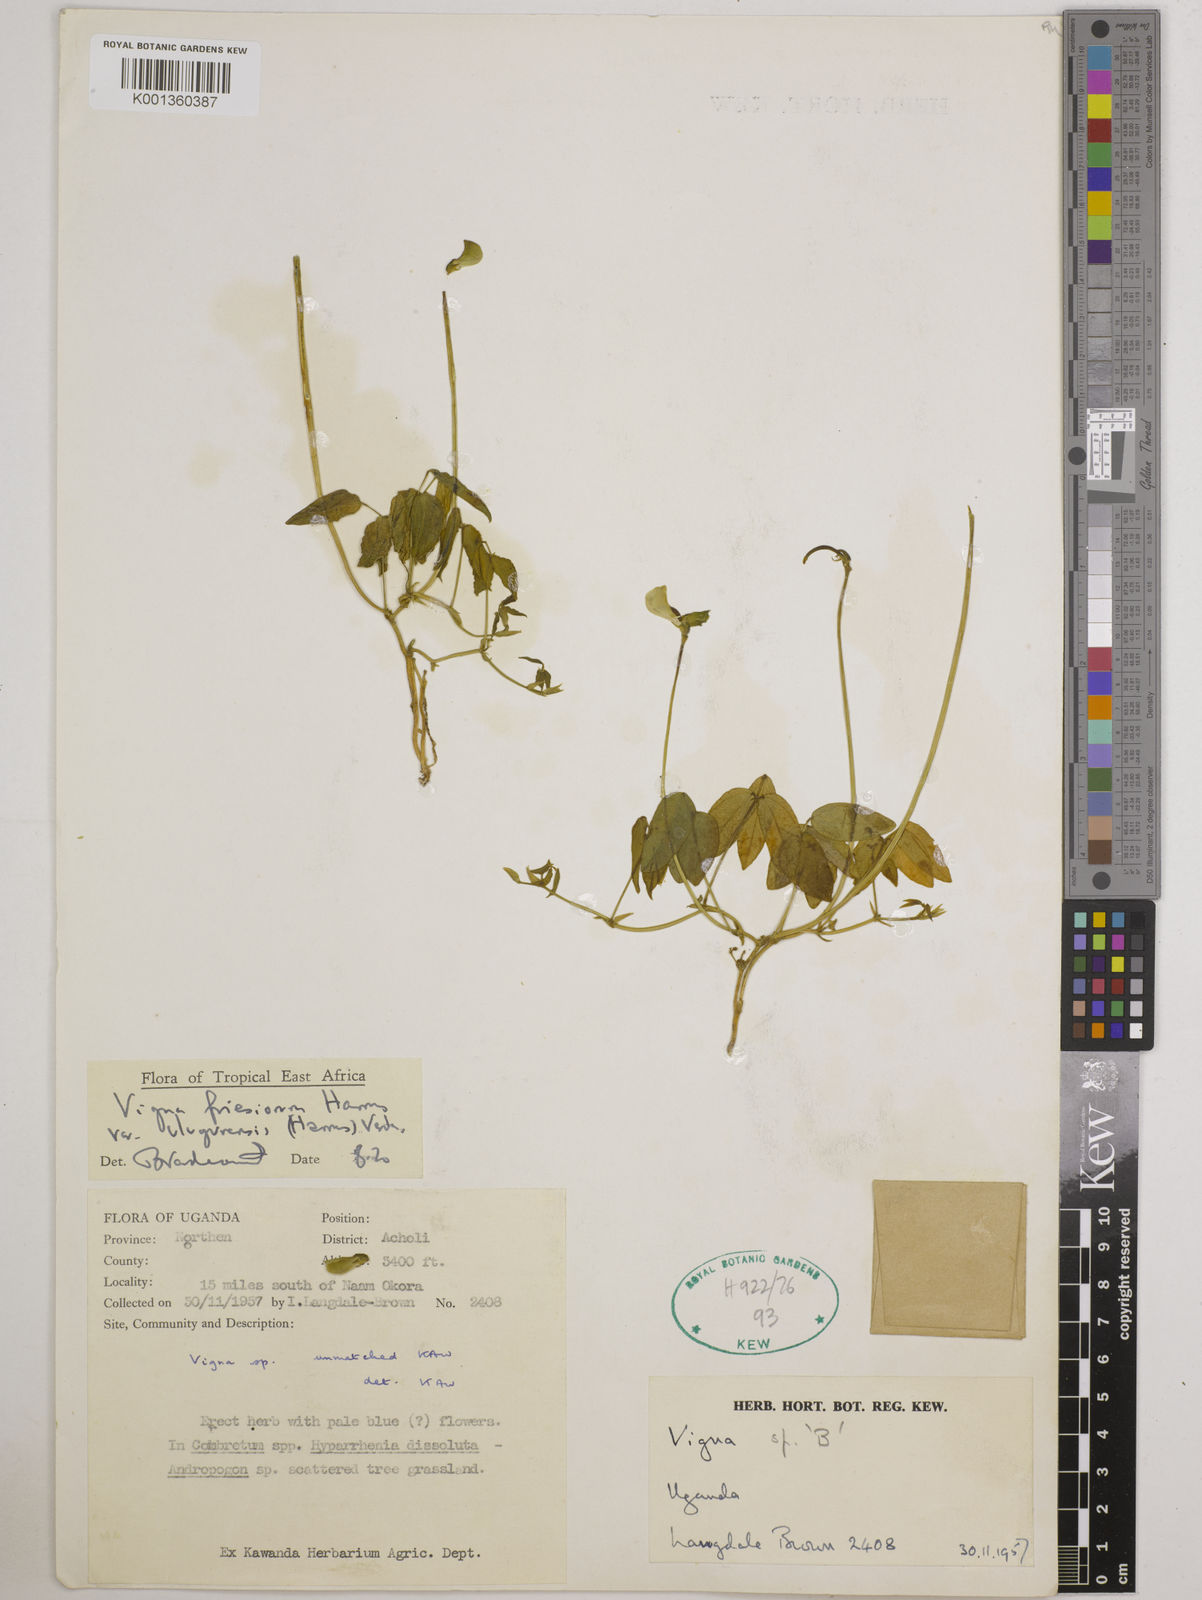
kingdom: Plantae
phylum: Tracheophyta
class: Magnoliopsida
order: Fabales
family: Fabaceae
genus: Vigna
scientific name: Vigna
